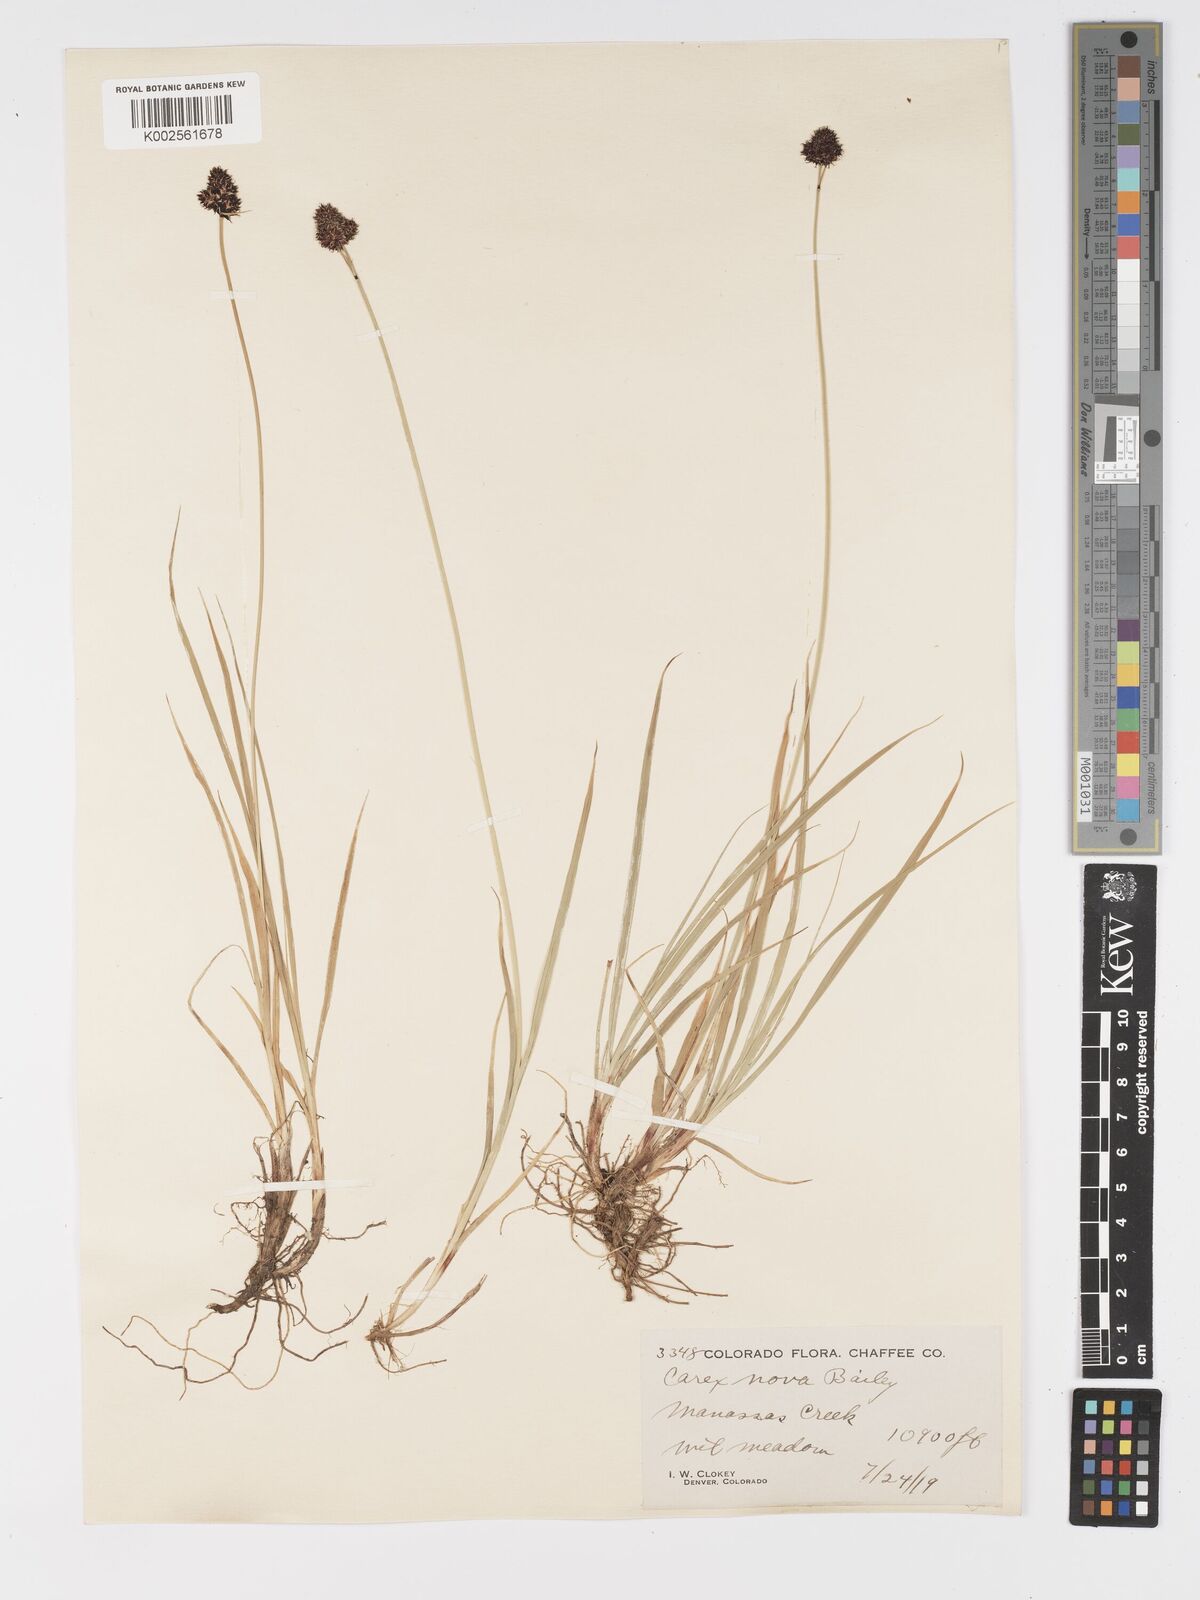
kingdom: Plantae
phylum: Tracheophyta
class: Liliopsida
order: Poales
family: Cyperaceae
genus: Carex
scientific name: Carex nova
